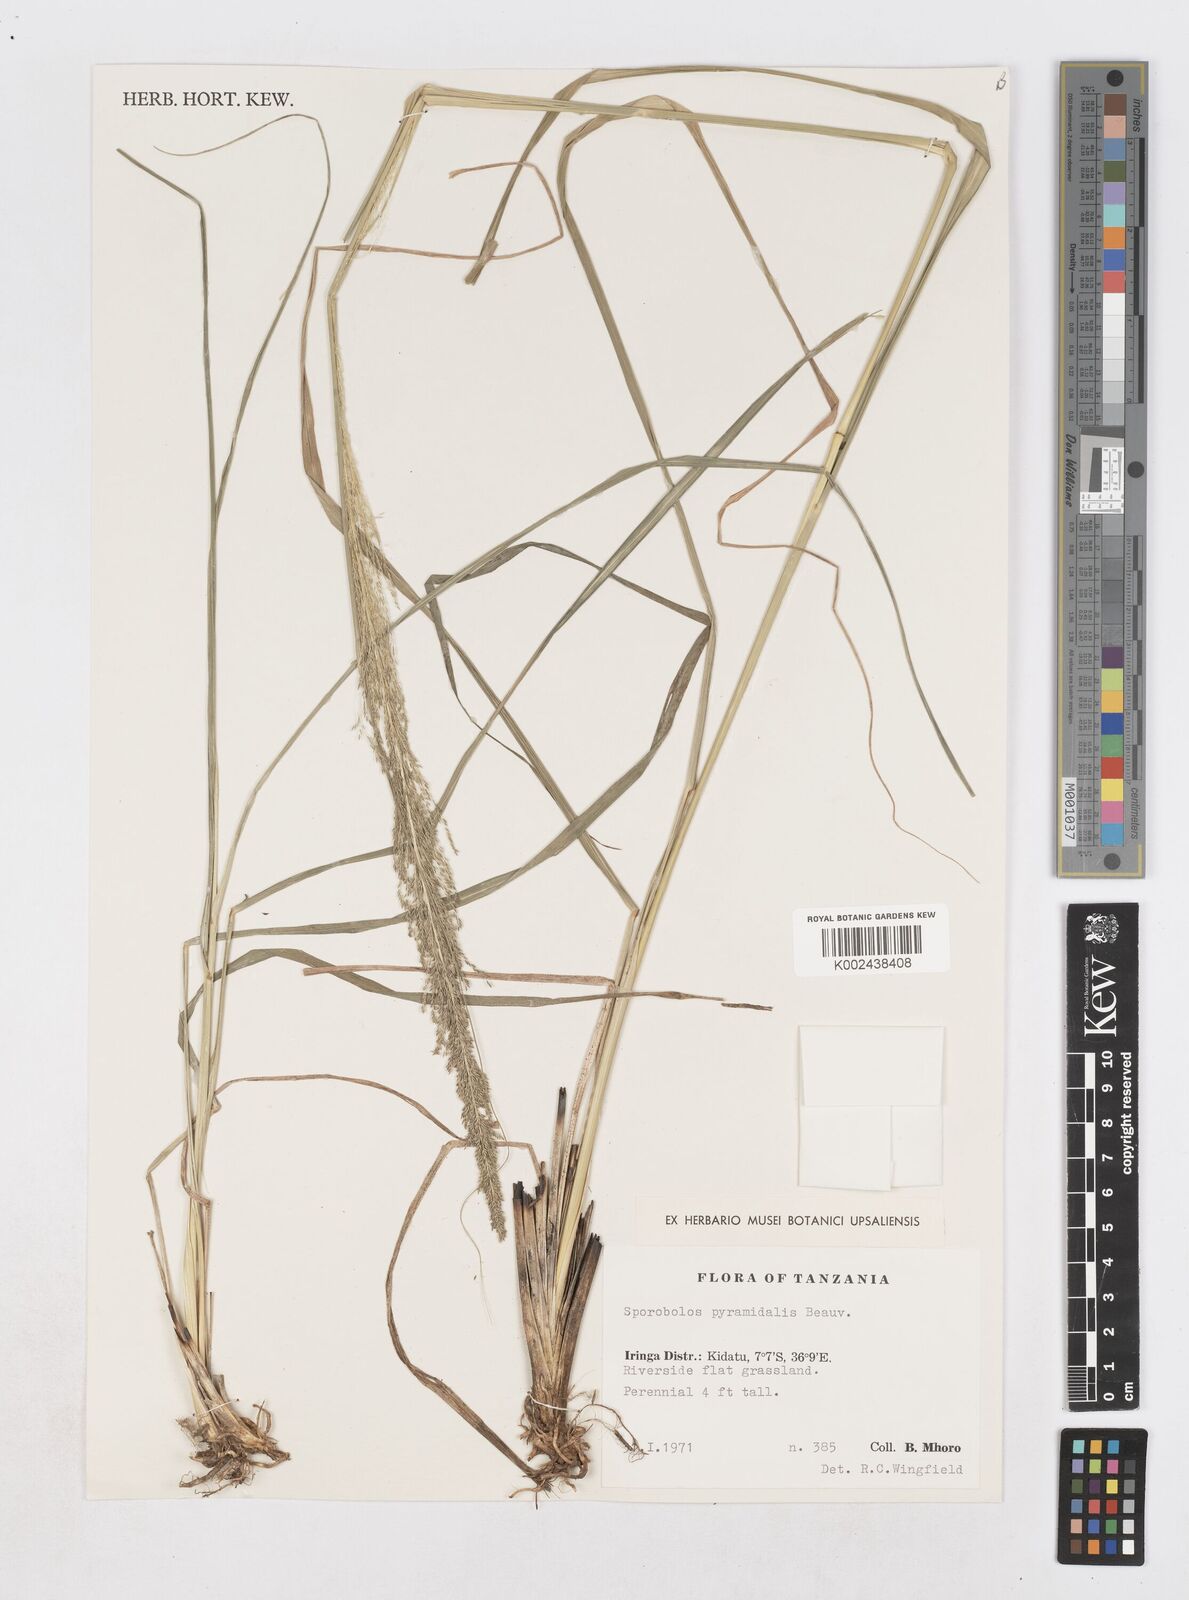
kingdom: Plantae
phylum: Tracheophyta
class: Liliopsida
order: Poales
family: Poaceae
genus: Sporobolus
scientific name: Sporobolus pyramidalis
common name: West indian dropseed
